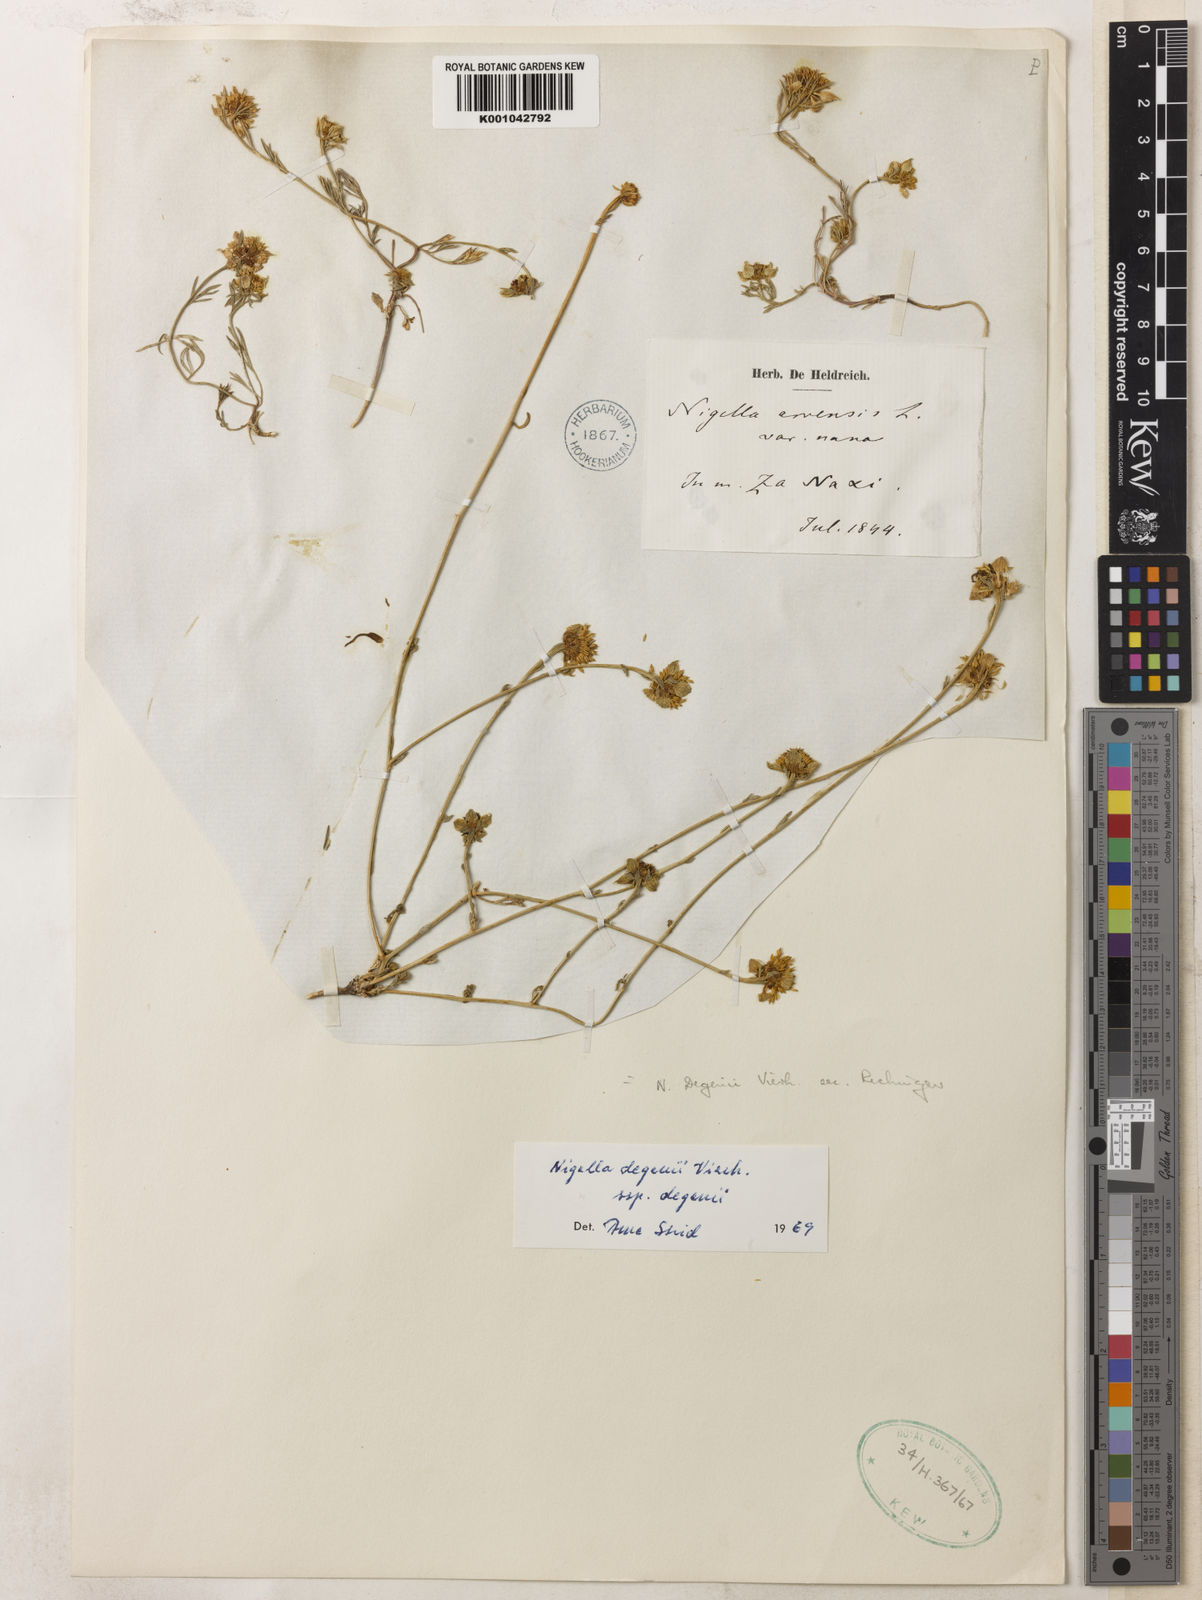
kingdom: Plantae
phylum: Tracheophyta
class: Magnoliopsida
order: Ranunculales
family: Ranunculaceae
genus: Nigella
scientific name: Nigella degenii
